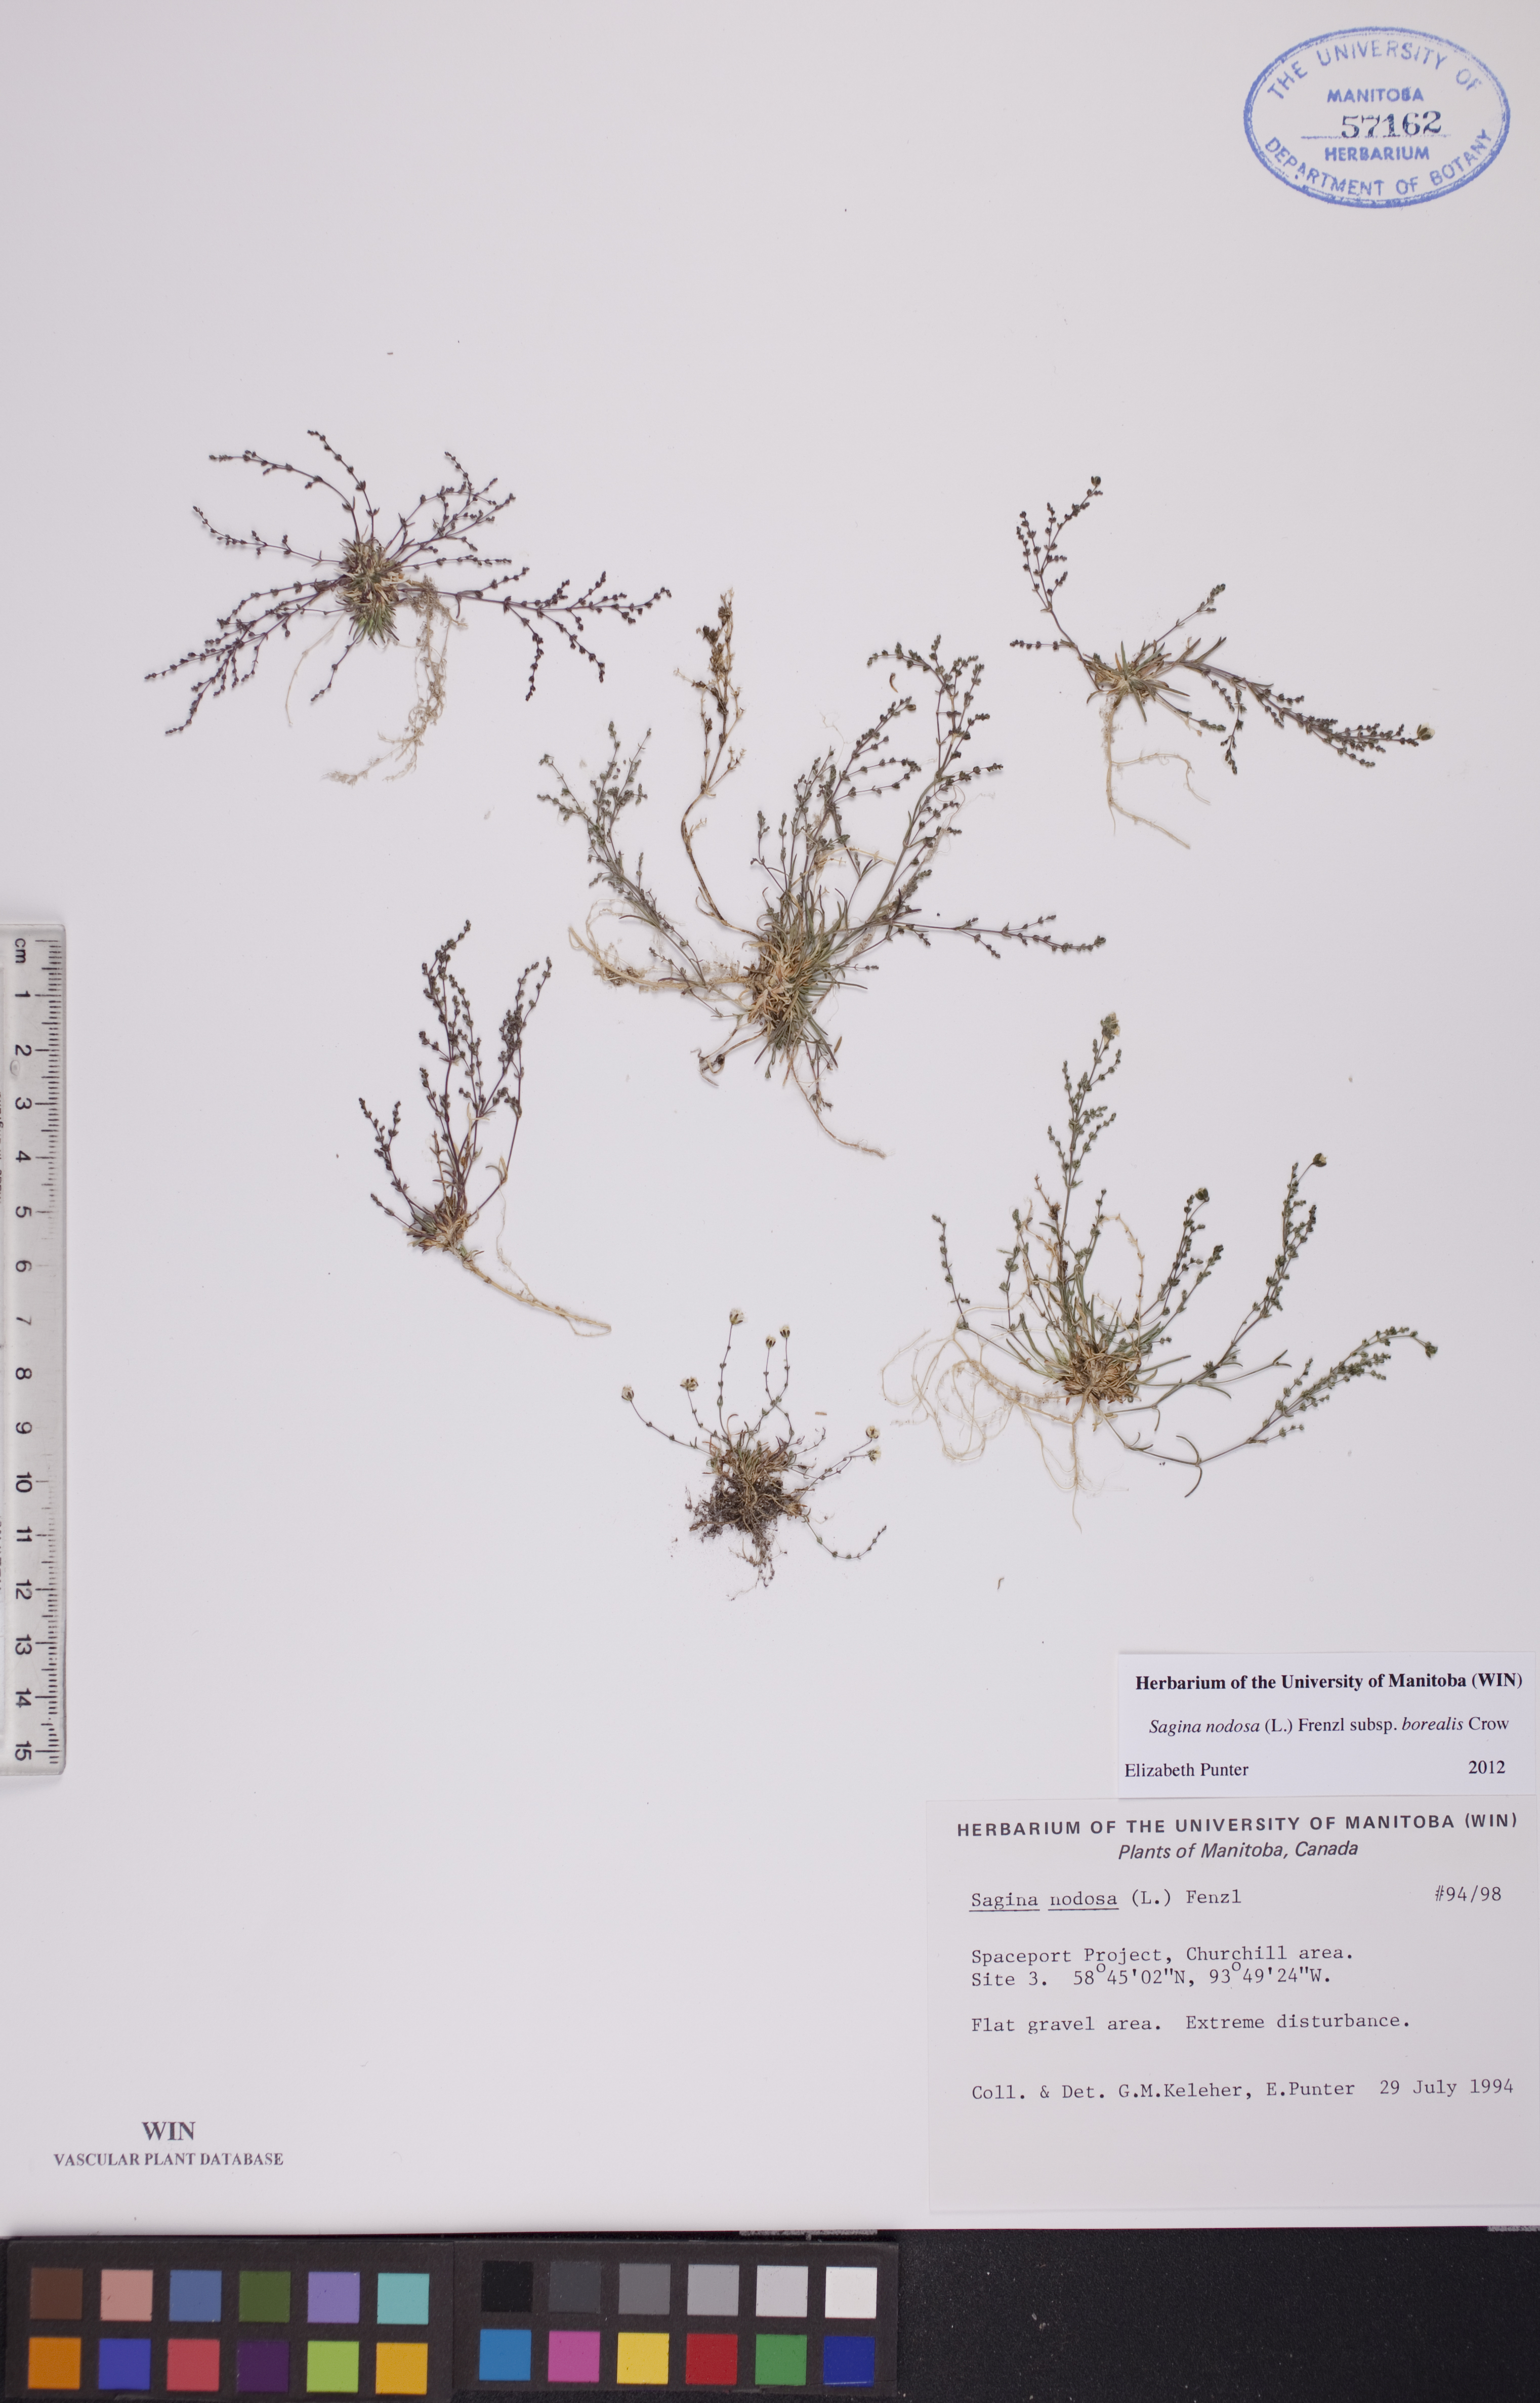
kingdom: Plantae
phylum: Tracheophyta
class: Magnoliopsida
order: Caryophyllales
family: Caryophyllaceae
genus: Sagina
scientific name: Sagina nodosa
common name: Knotted pearlwort
